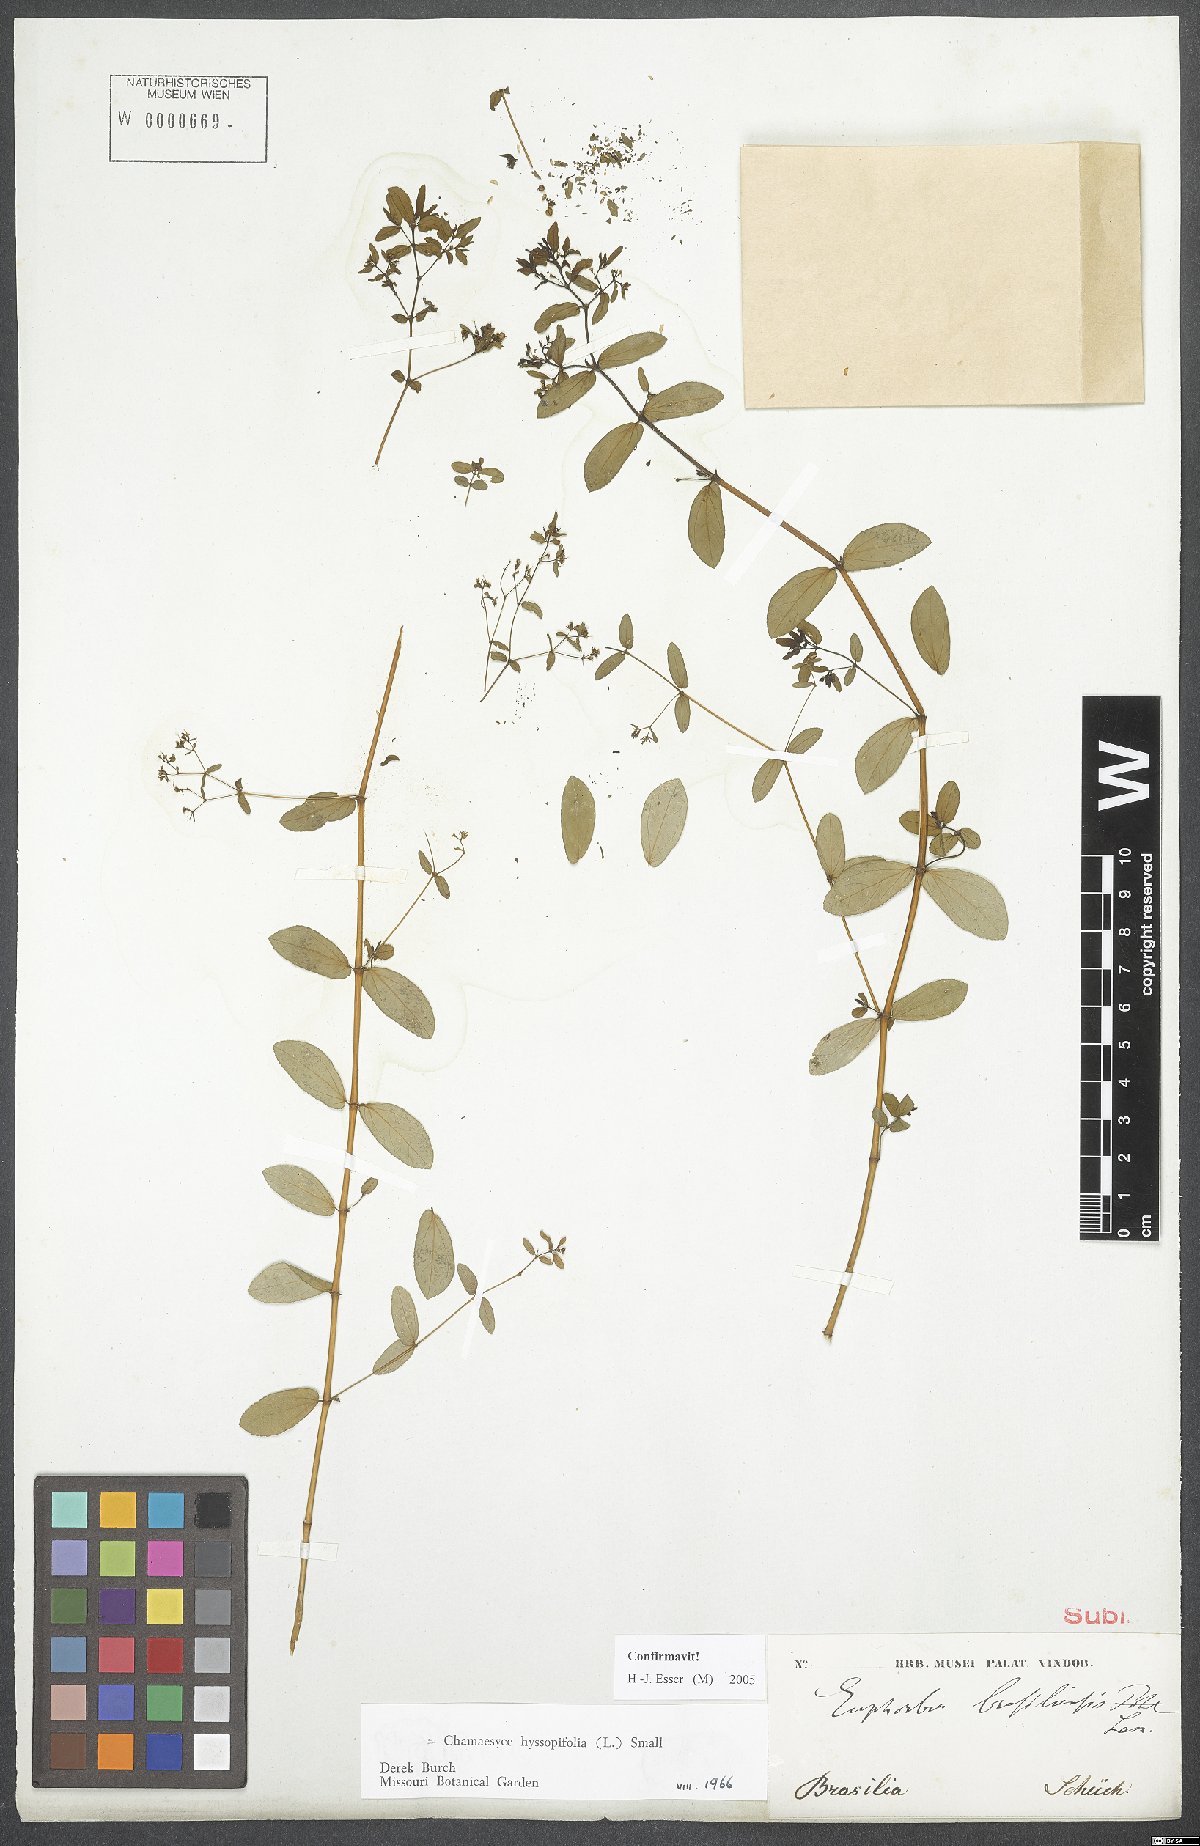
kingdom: Plantae
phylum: Tracheophyta
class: Magnoliopsida
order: Malpighiales
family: Euphorbiaceae
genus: Euphorbia
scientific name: Euphorbia hyssopifolia
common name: Hyssopleaf sandmat
